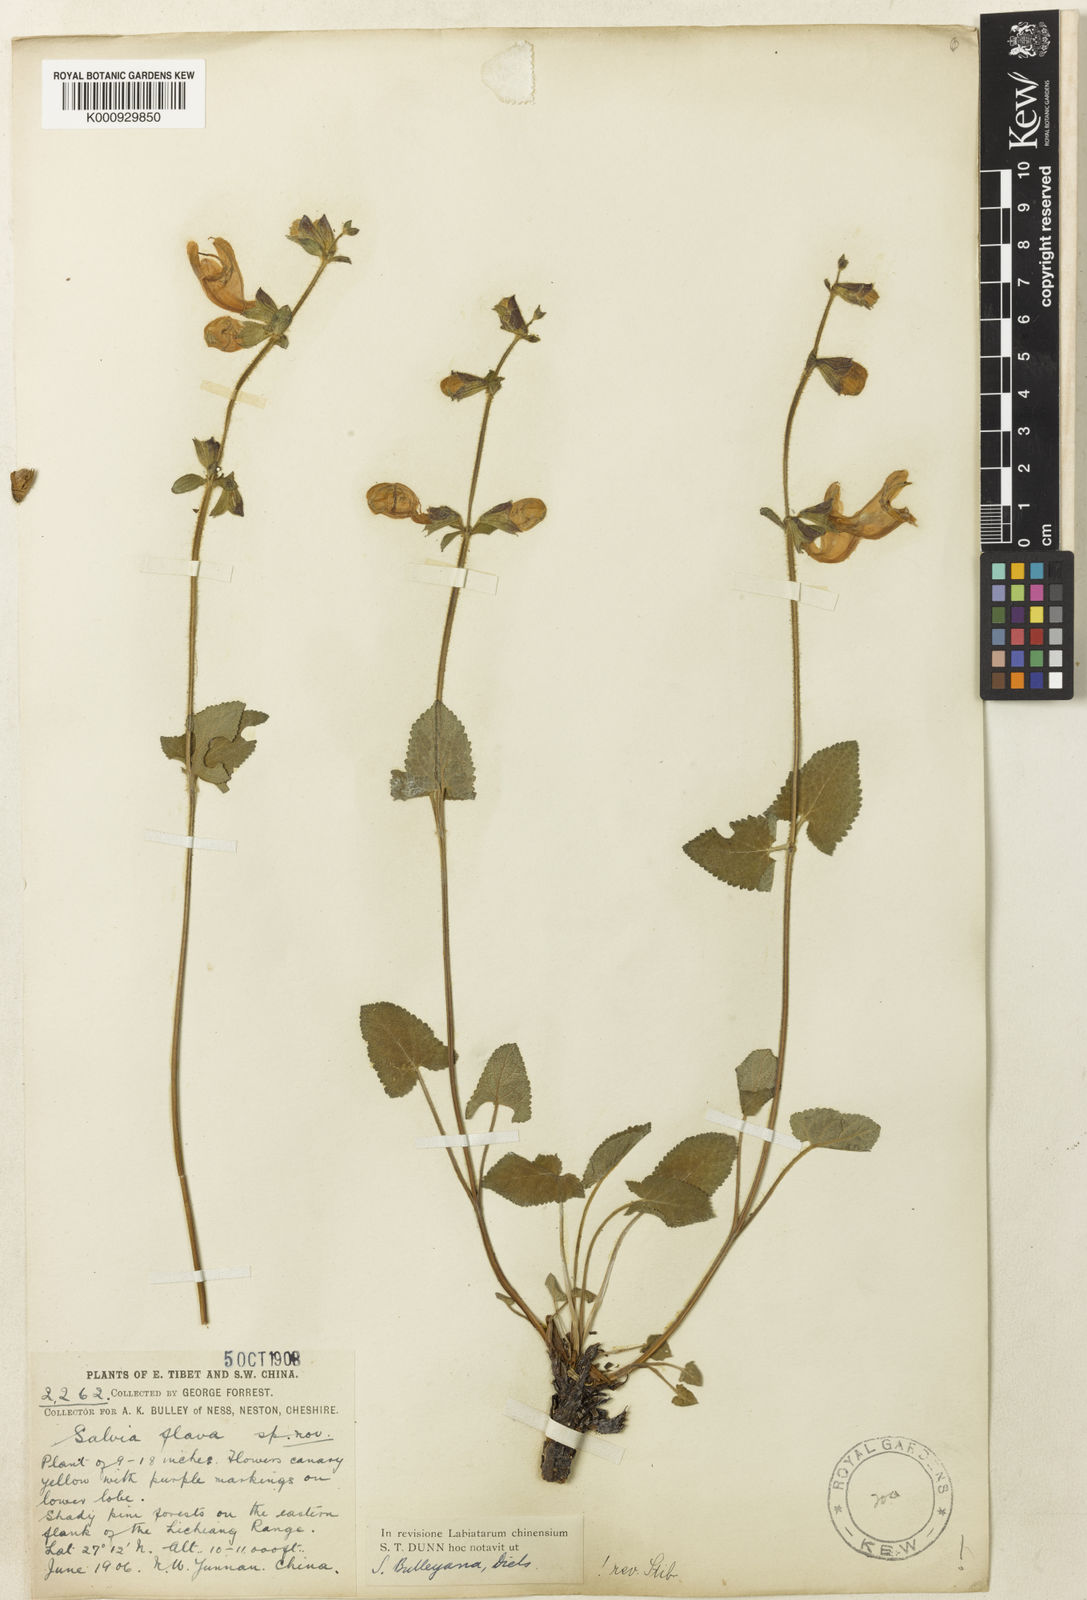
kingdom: Plantae
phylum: Tracheophyta
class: Magnoliopsida
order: Lamiales
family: Lamiaceae
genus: Salvia
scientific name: Salvia flava
